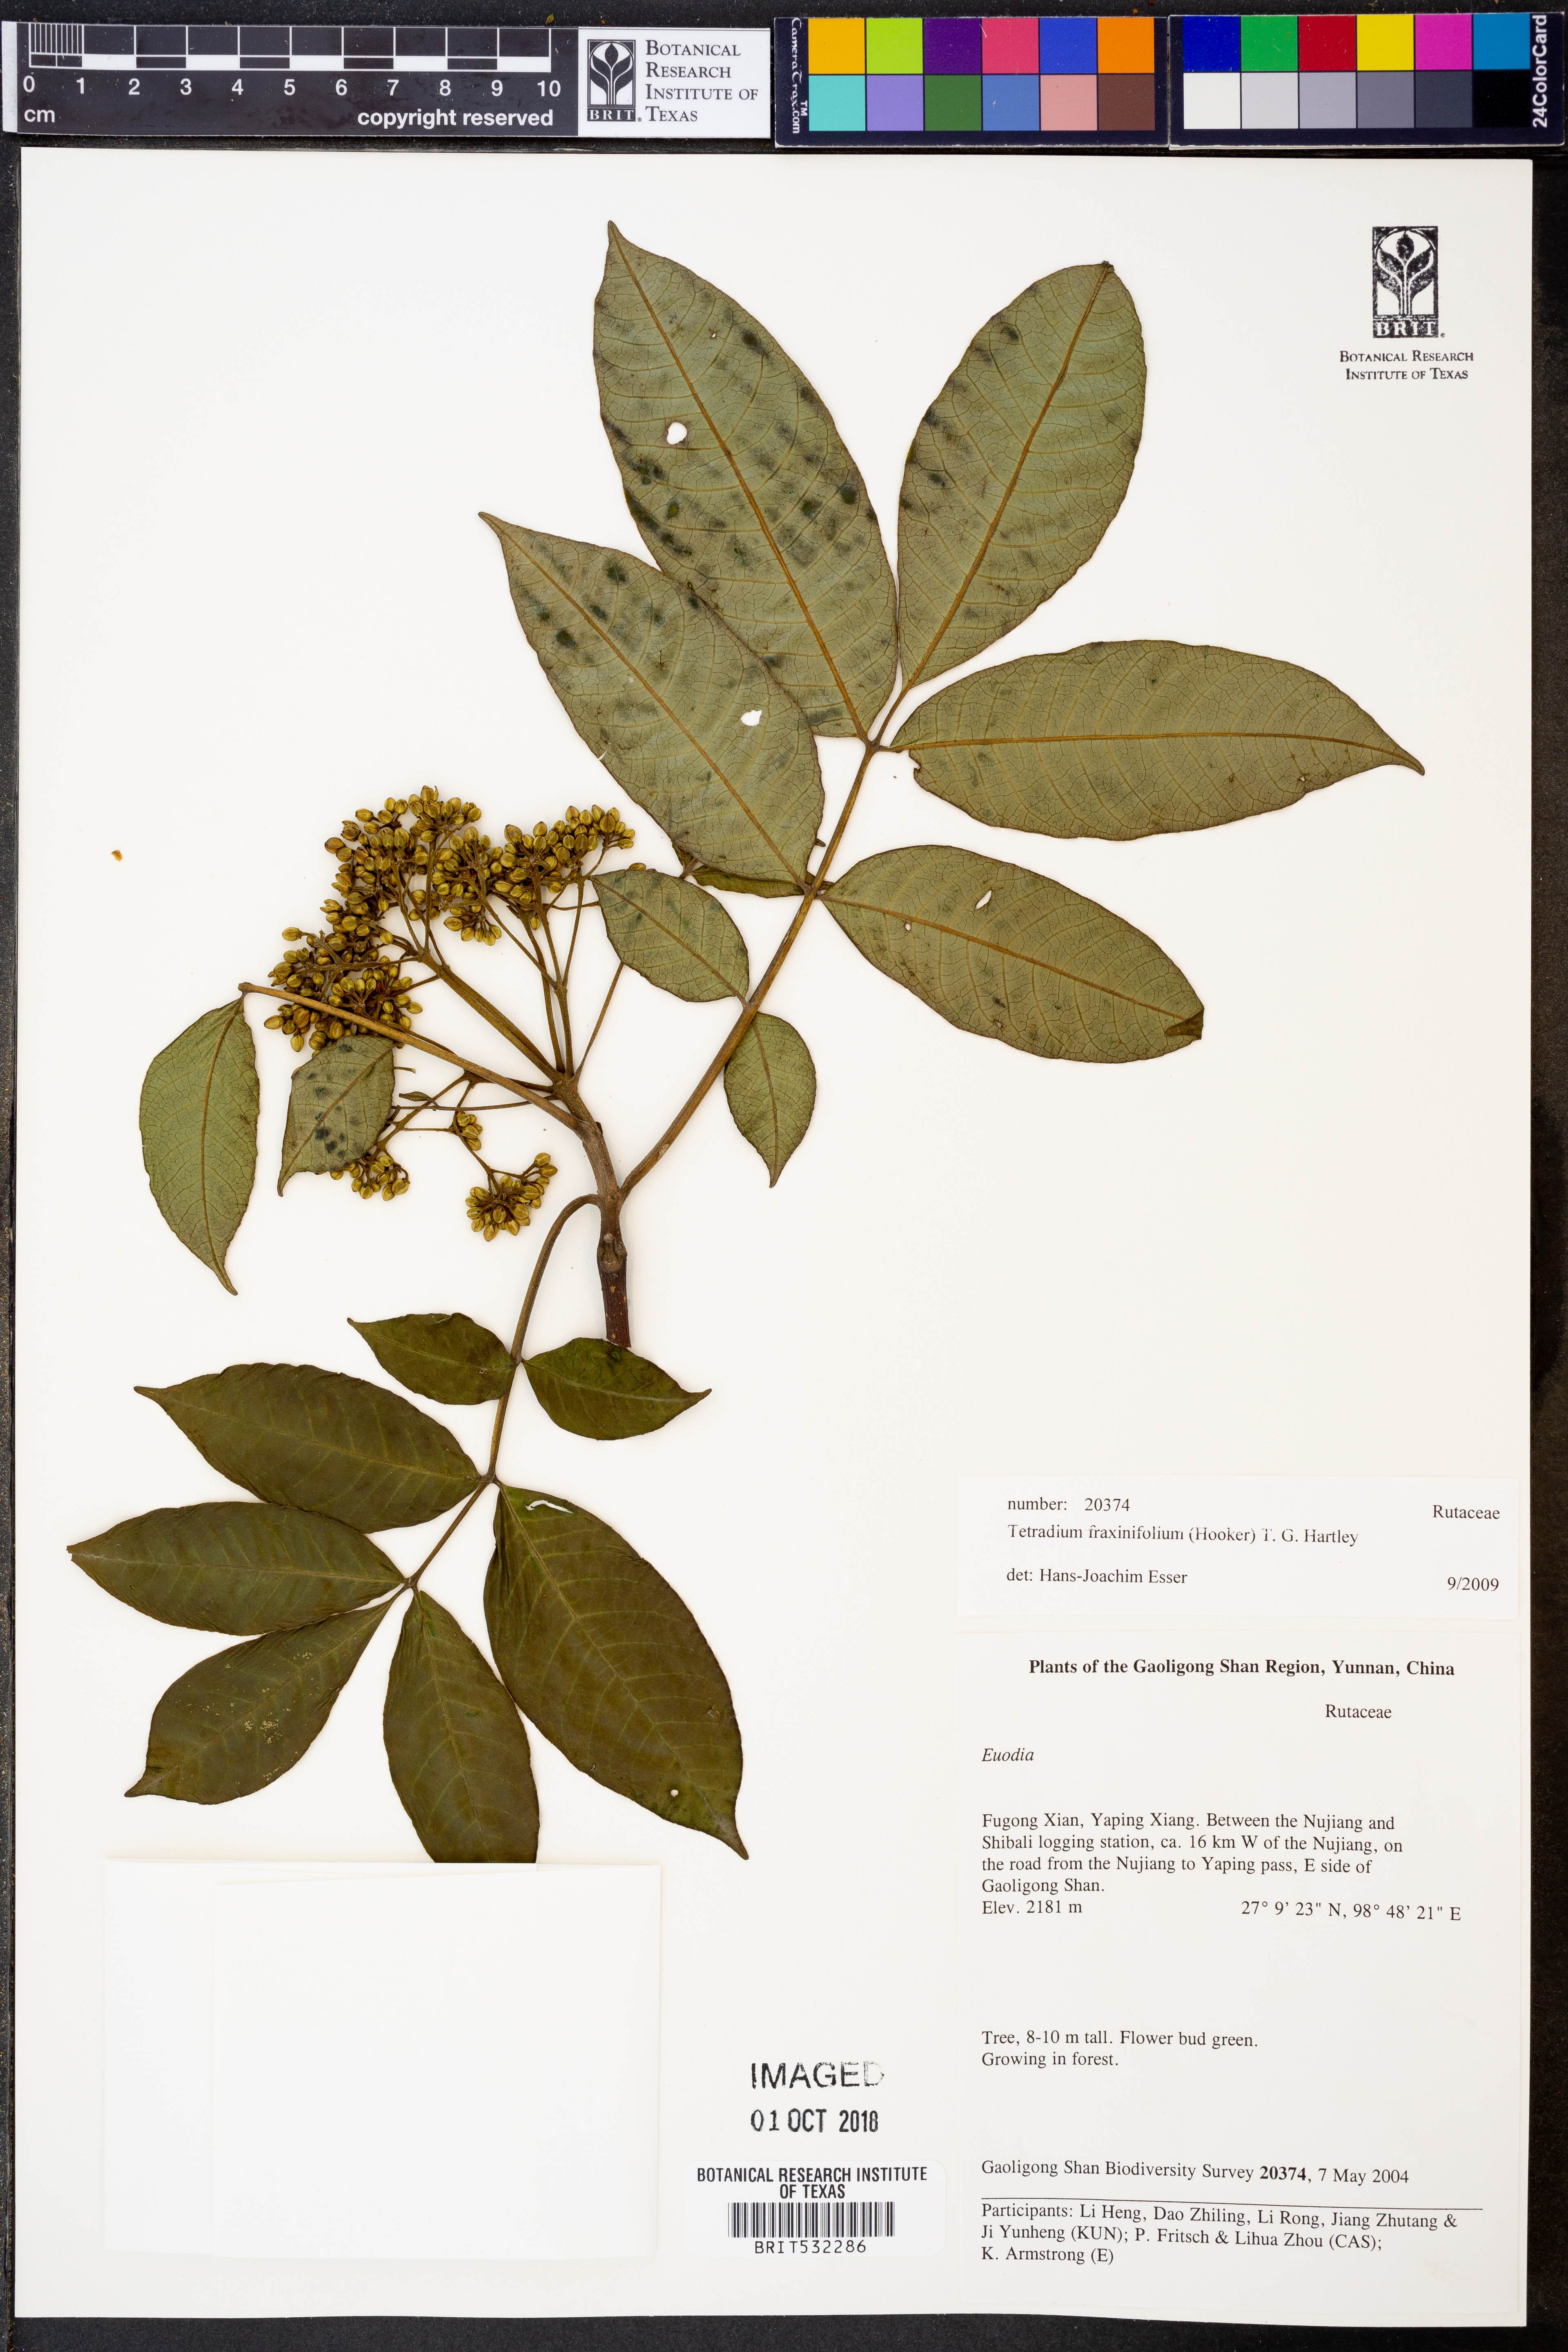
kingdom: Plantae
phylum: Tracheophyta
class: Magnoliopsida
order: Sapindales
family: Rutaceae
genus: Tetradium
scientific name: Tetradium fraxinifolium
